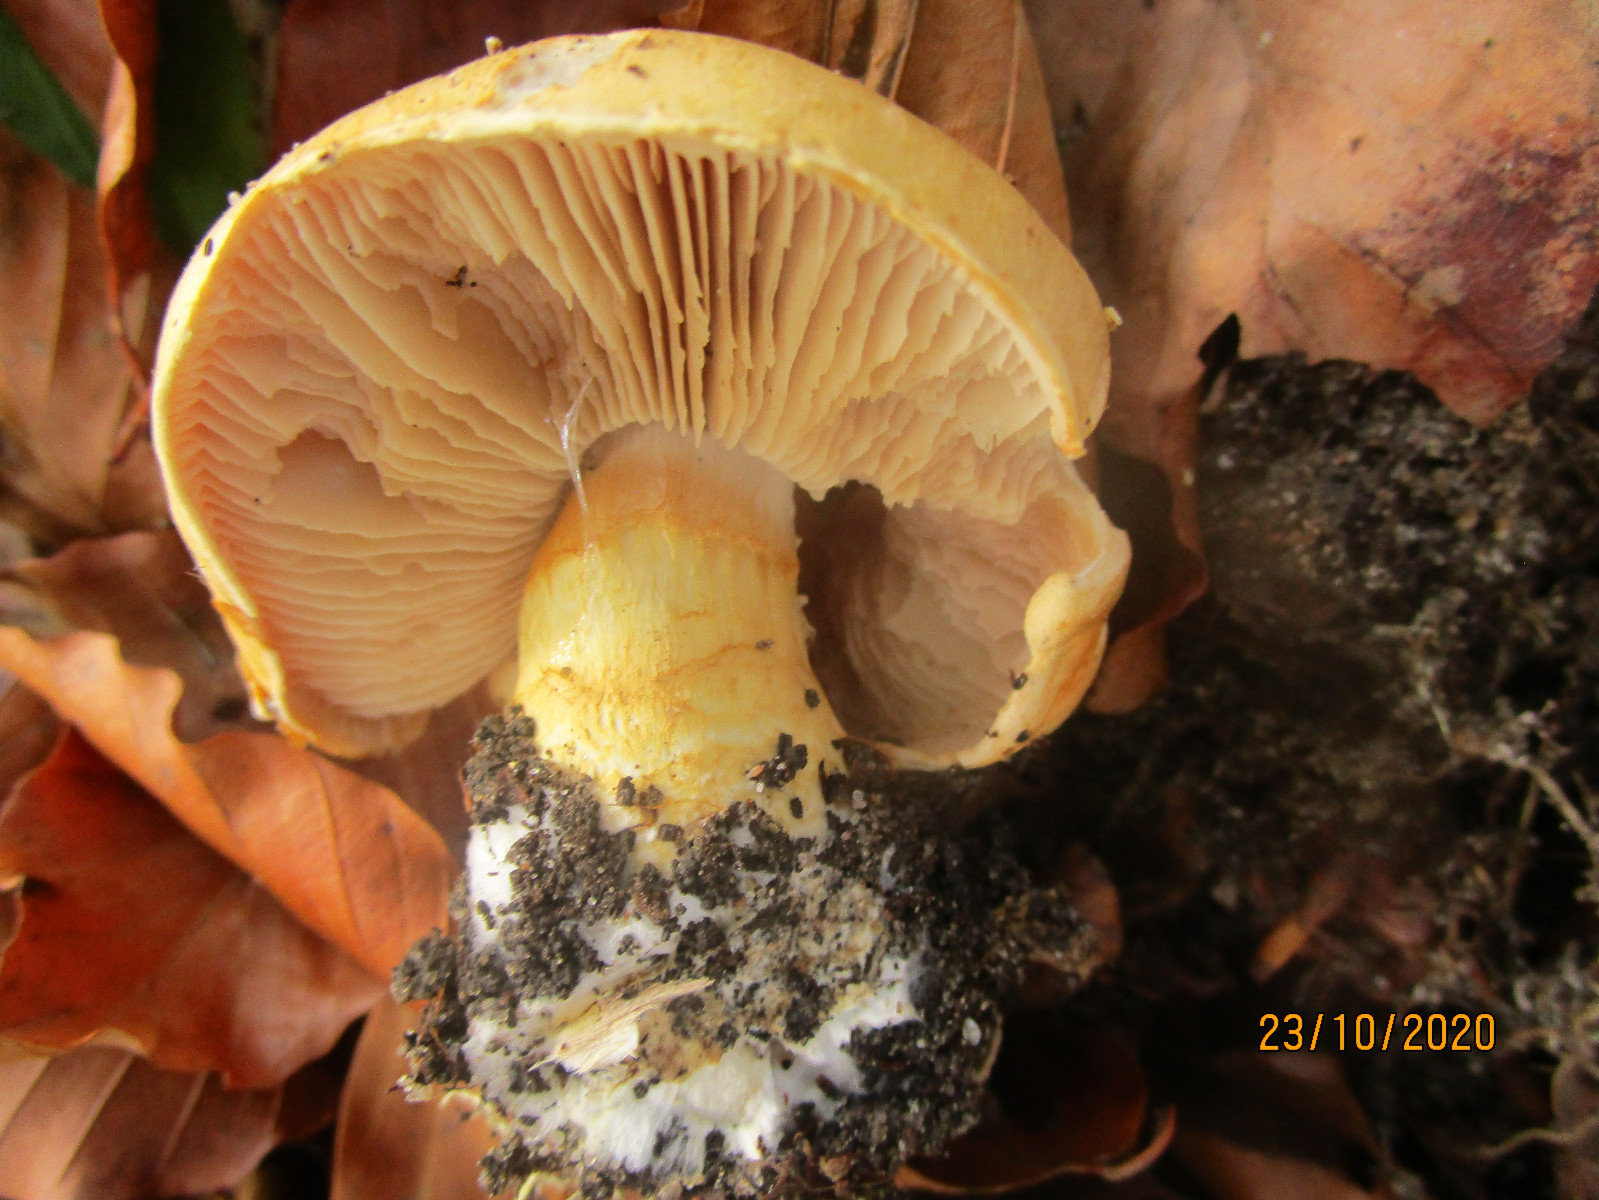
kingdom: Fungi
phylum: Basidiomycota
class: Agaricomycetes
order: Agaricales
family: Cortinariaceae
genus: Phlegmacium
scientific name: Phlegmacium cliduchus
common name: majs-slørhat
